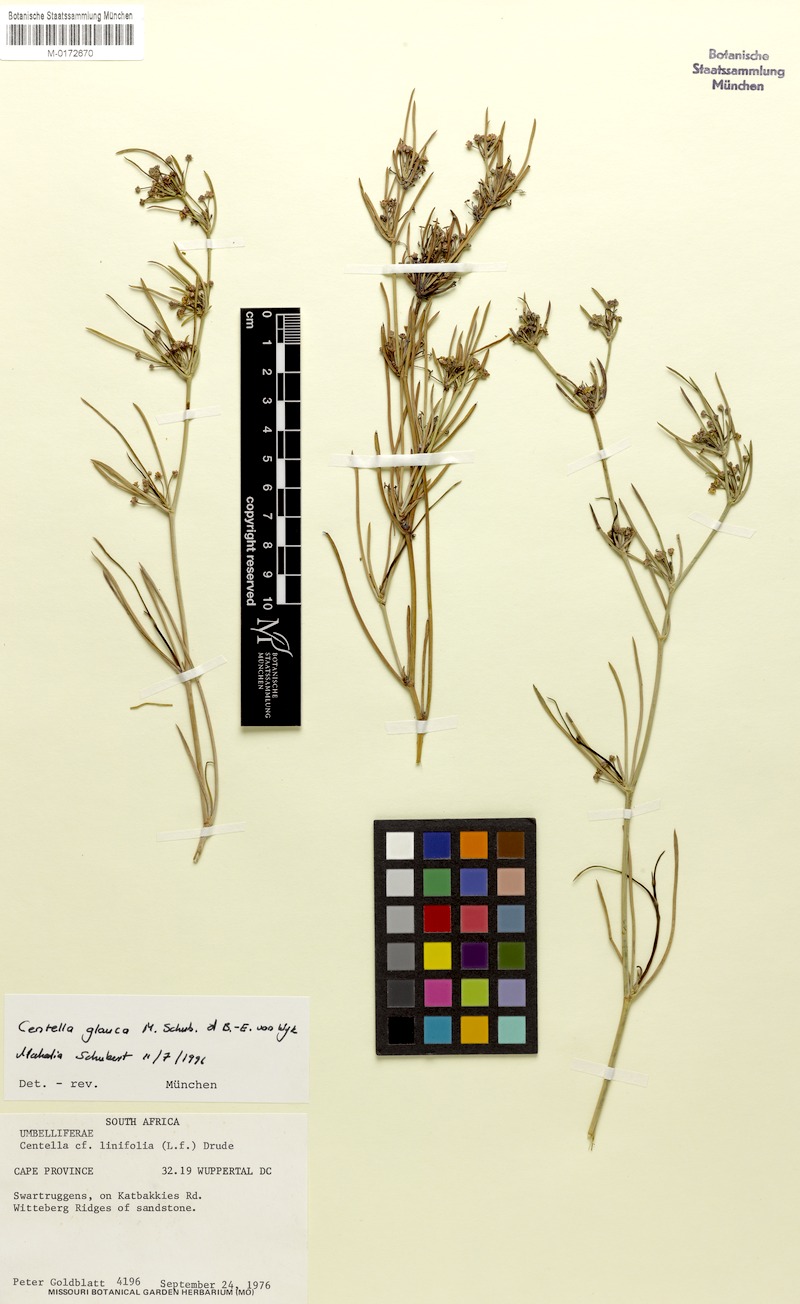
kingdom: Plantae
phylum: Tracheophyta
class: Magnoliopsida
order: Apiales
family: Apiaceae
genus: Centella
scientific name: Centella glauca
